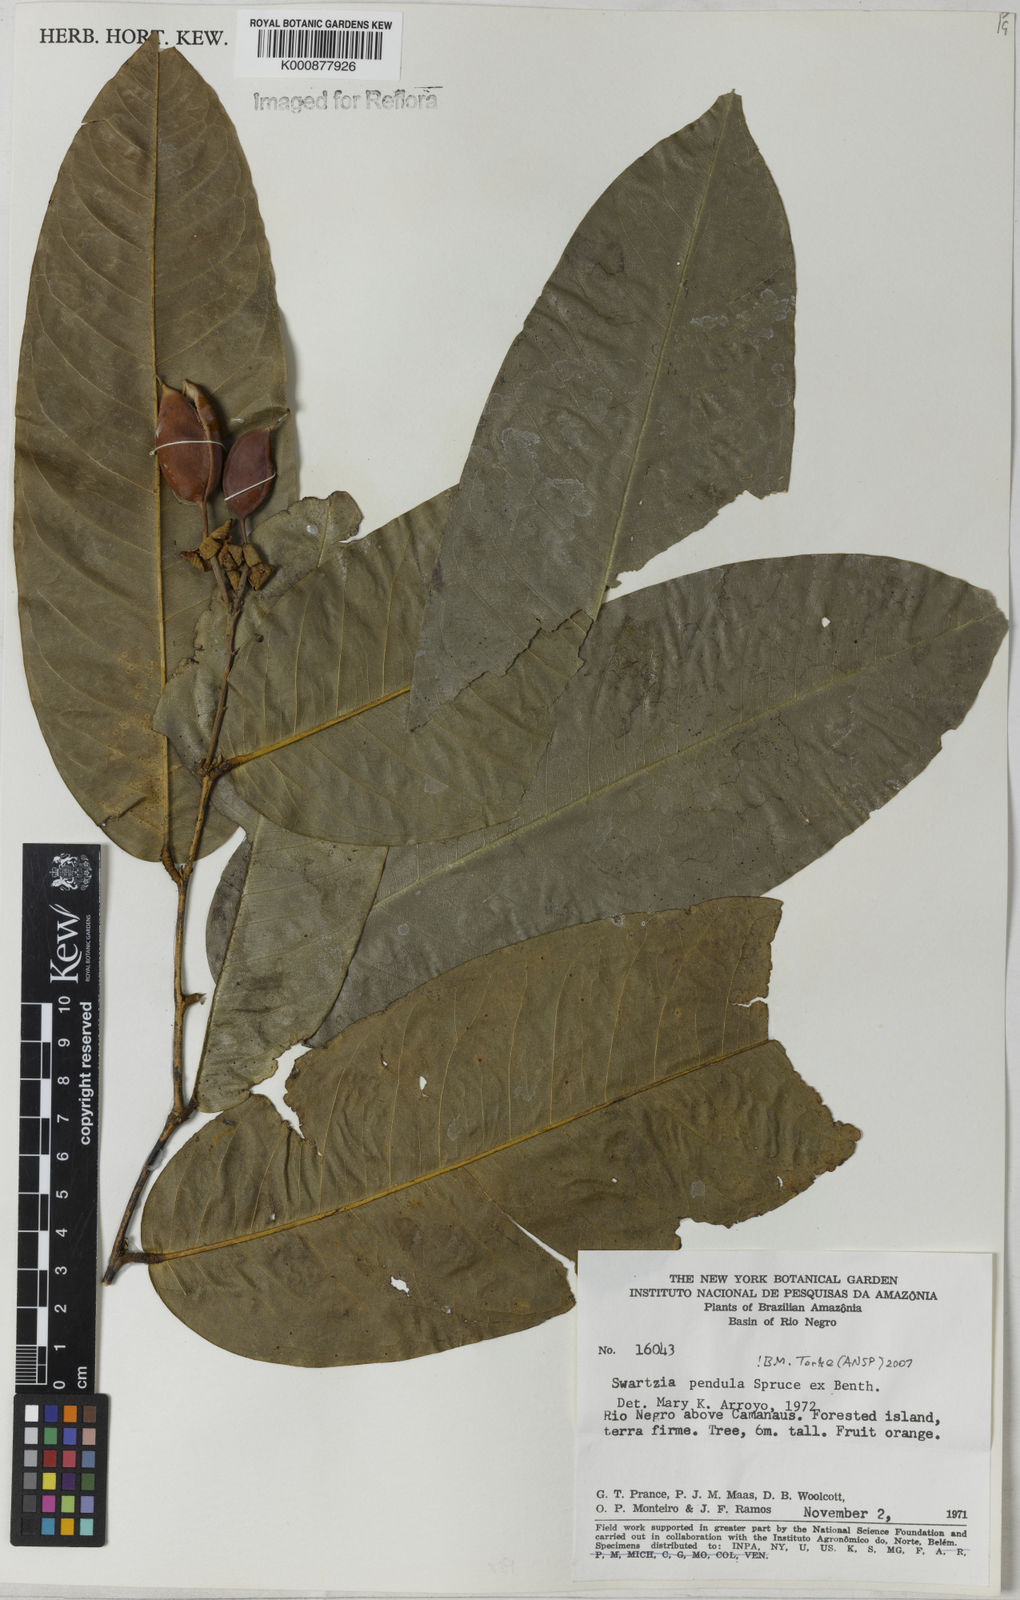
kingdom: Plantae
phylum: Tracheophyta
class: Magnoliopsida
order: Fabales
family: Fabaceae
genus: Swartzia
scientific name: Swartzia pendula
